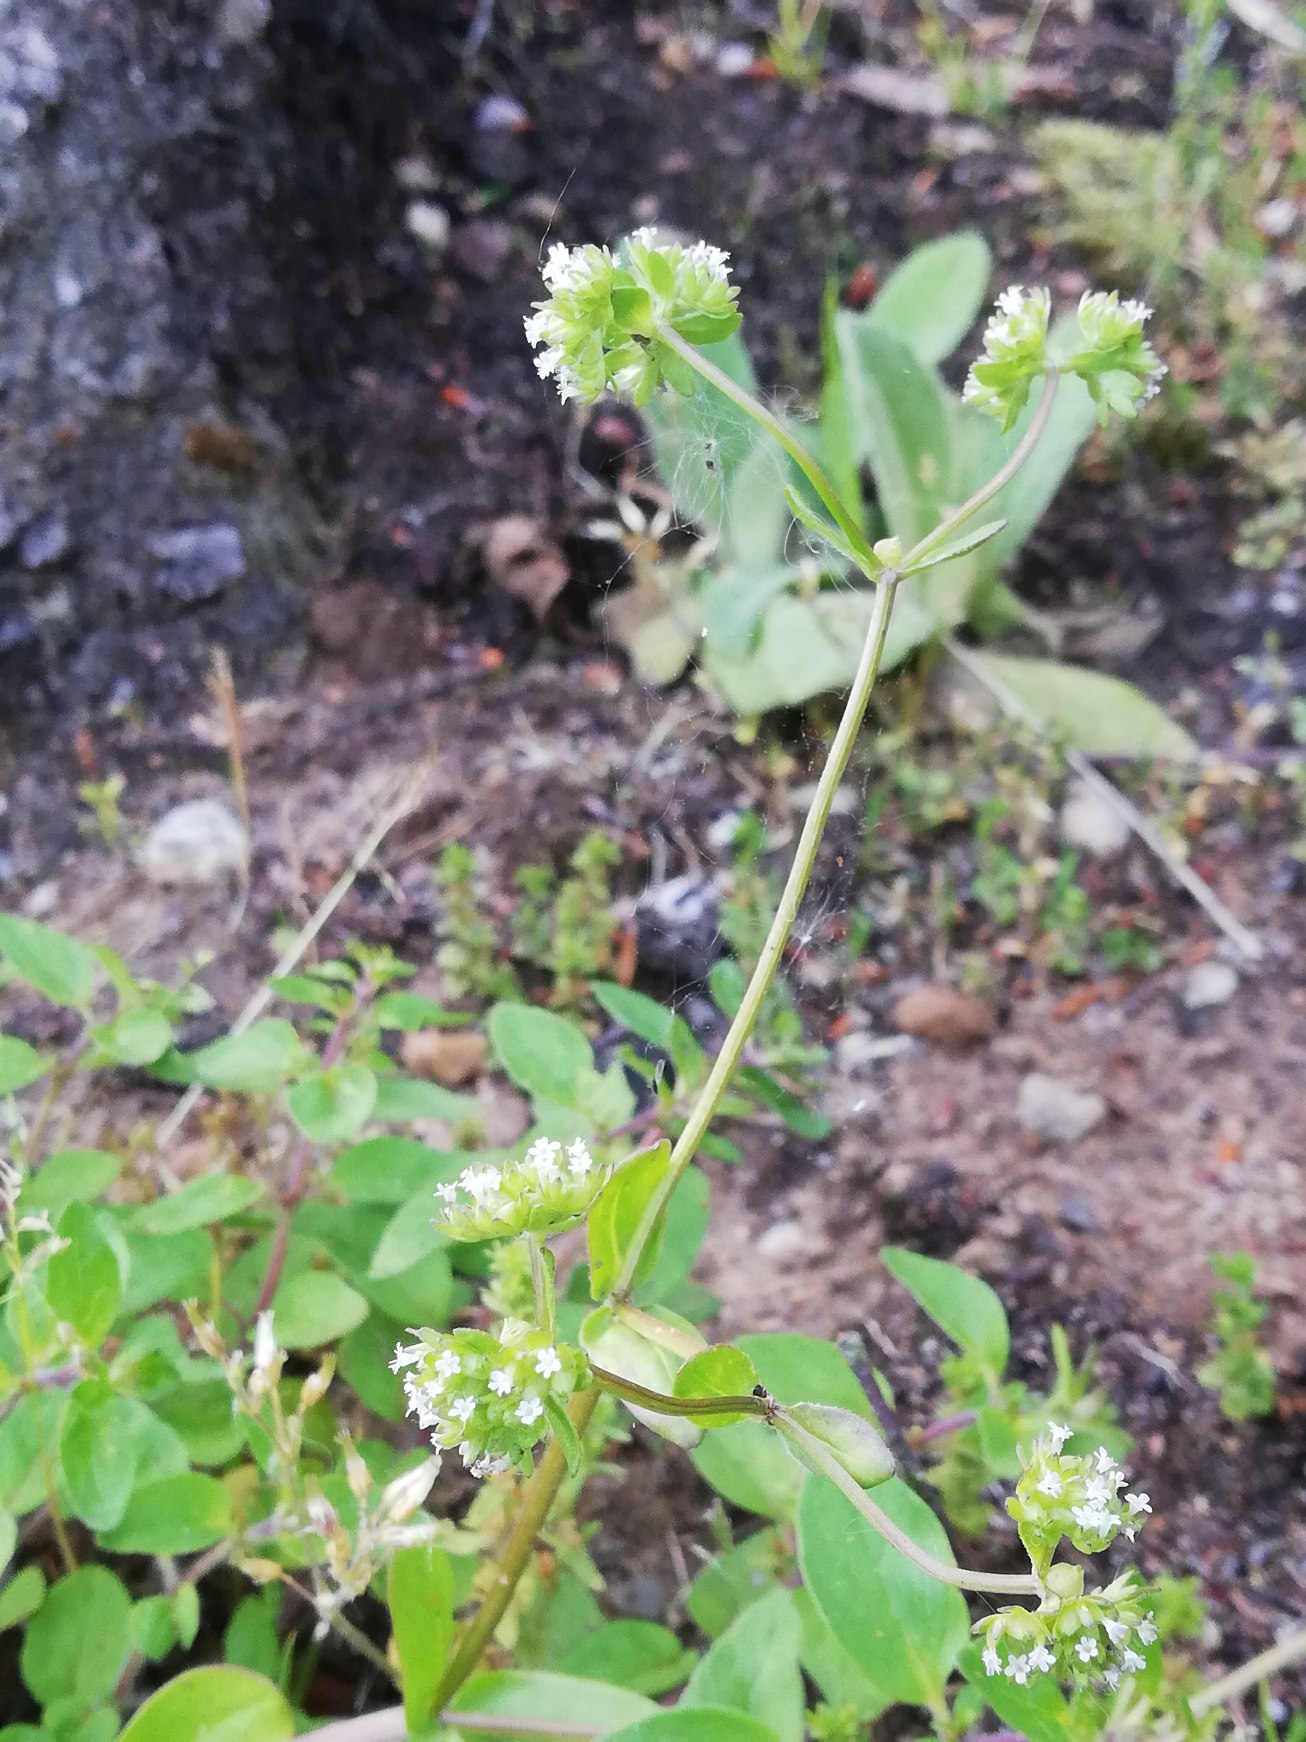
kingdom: Plantae
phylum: Tracheophyta
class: Magnoliopsida
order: Dipsacales
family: Caprifoliaceae
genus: Valerianella
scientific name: Valerianella locusta
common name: Tandfri vårsalat
